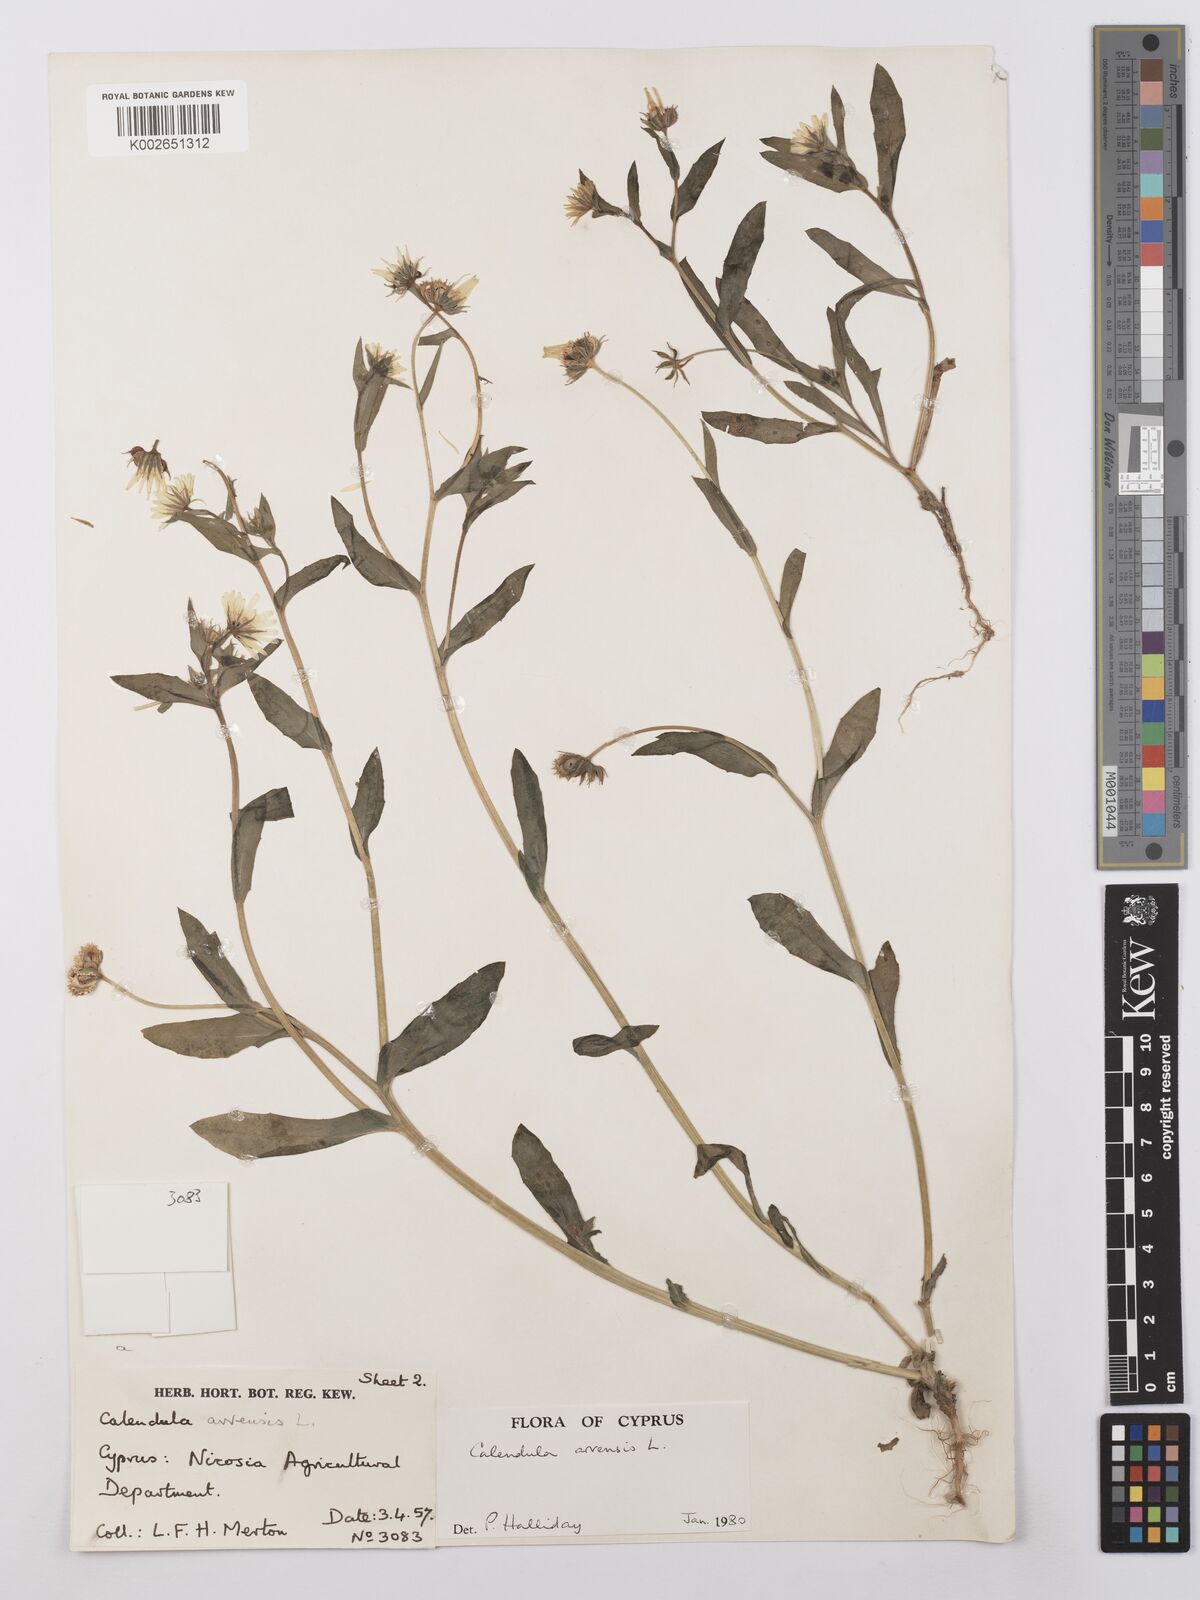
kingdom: Plantae
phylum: Tracheophyta
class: Magnoliopsida
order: Asterales
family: Asteraceae
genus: Calendula
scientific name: Calendula arvensis
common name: Field marigold
